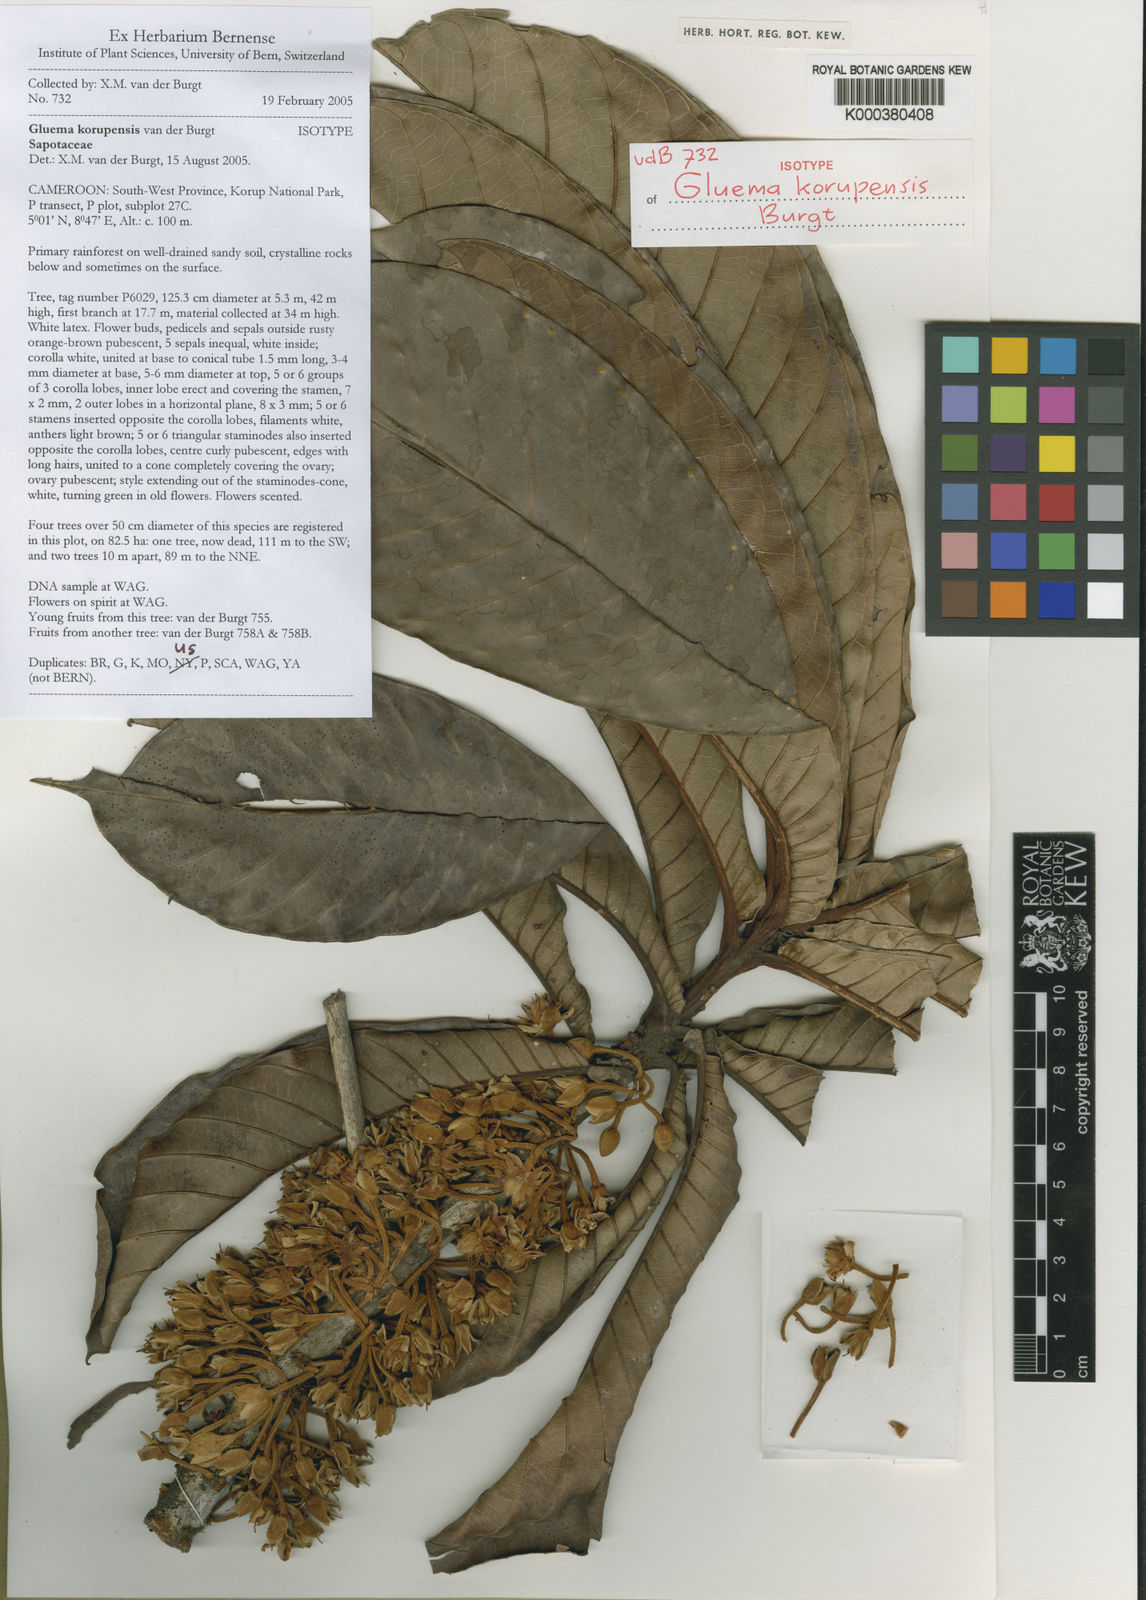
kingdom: Plantae
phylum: Tracheophyta
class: Magnoliopsida
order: Ericales
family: Sapotaceae
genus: Gluema
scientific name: Gluema korupensis
